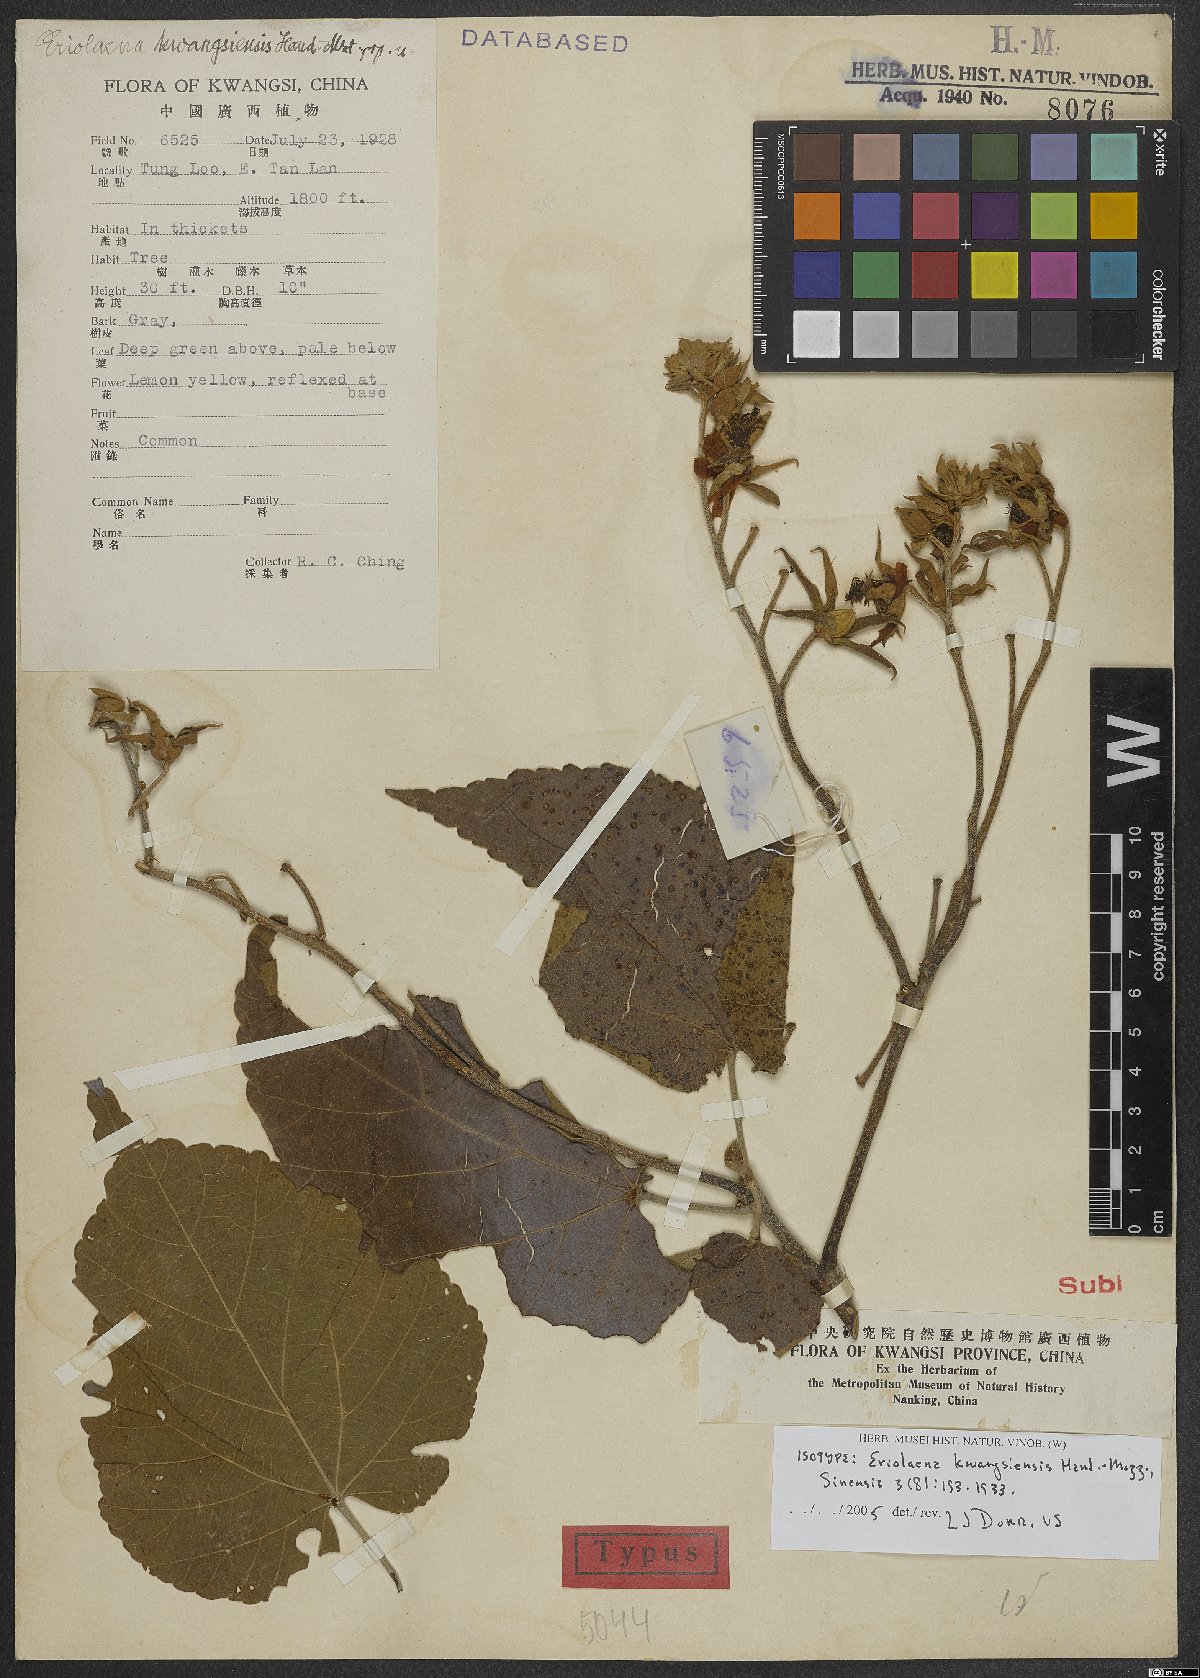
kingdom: Plantae
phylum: Tracheophyta
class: Magnoliopsida
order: Malvales
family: Malvaceae
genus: Eriolaena
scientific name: Eriolaena candollei
